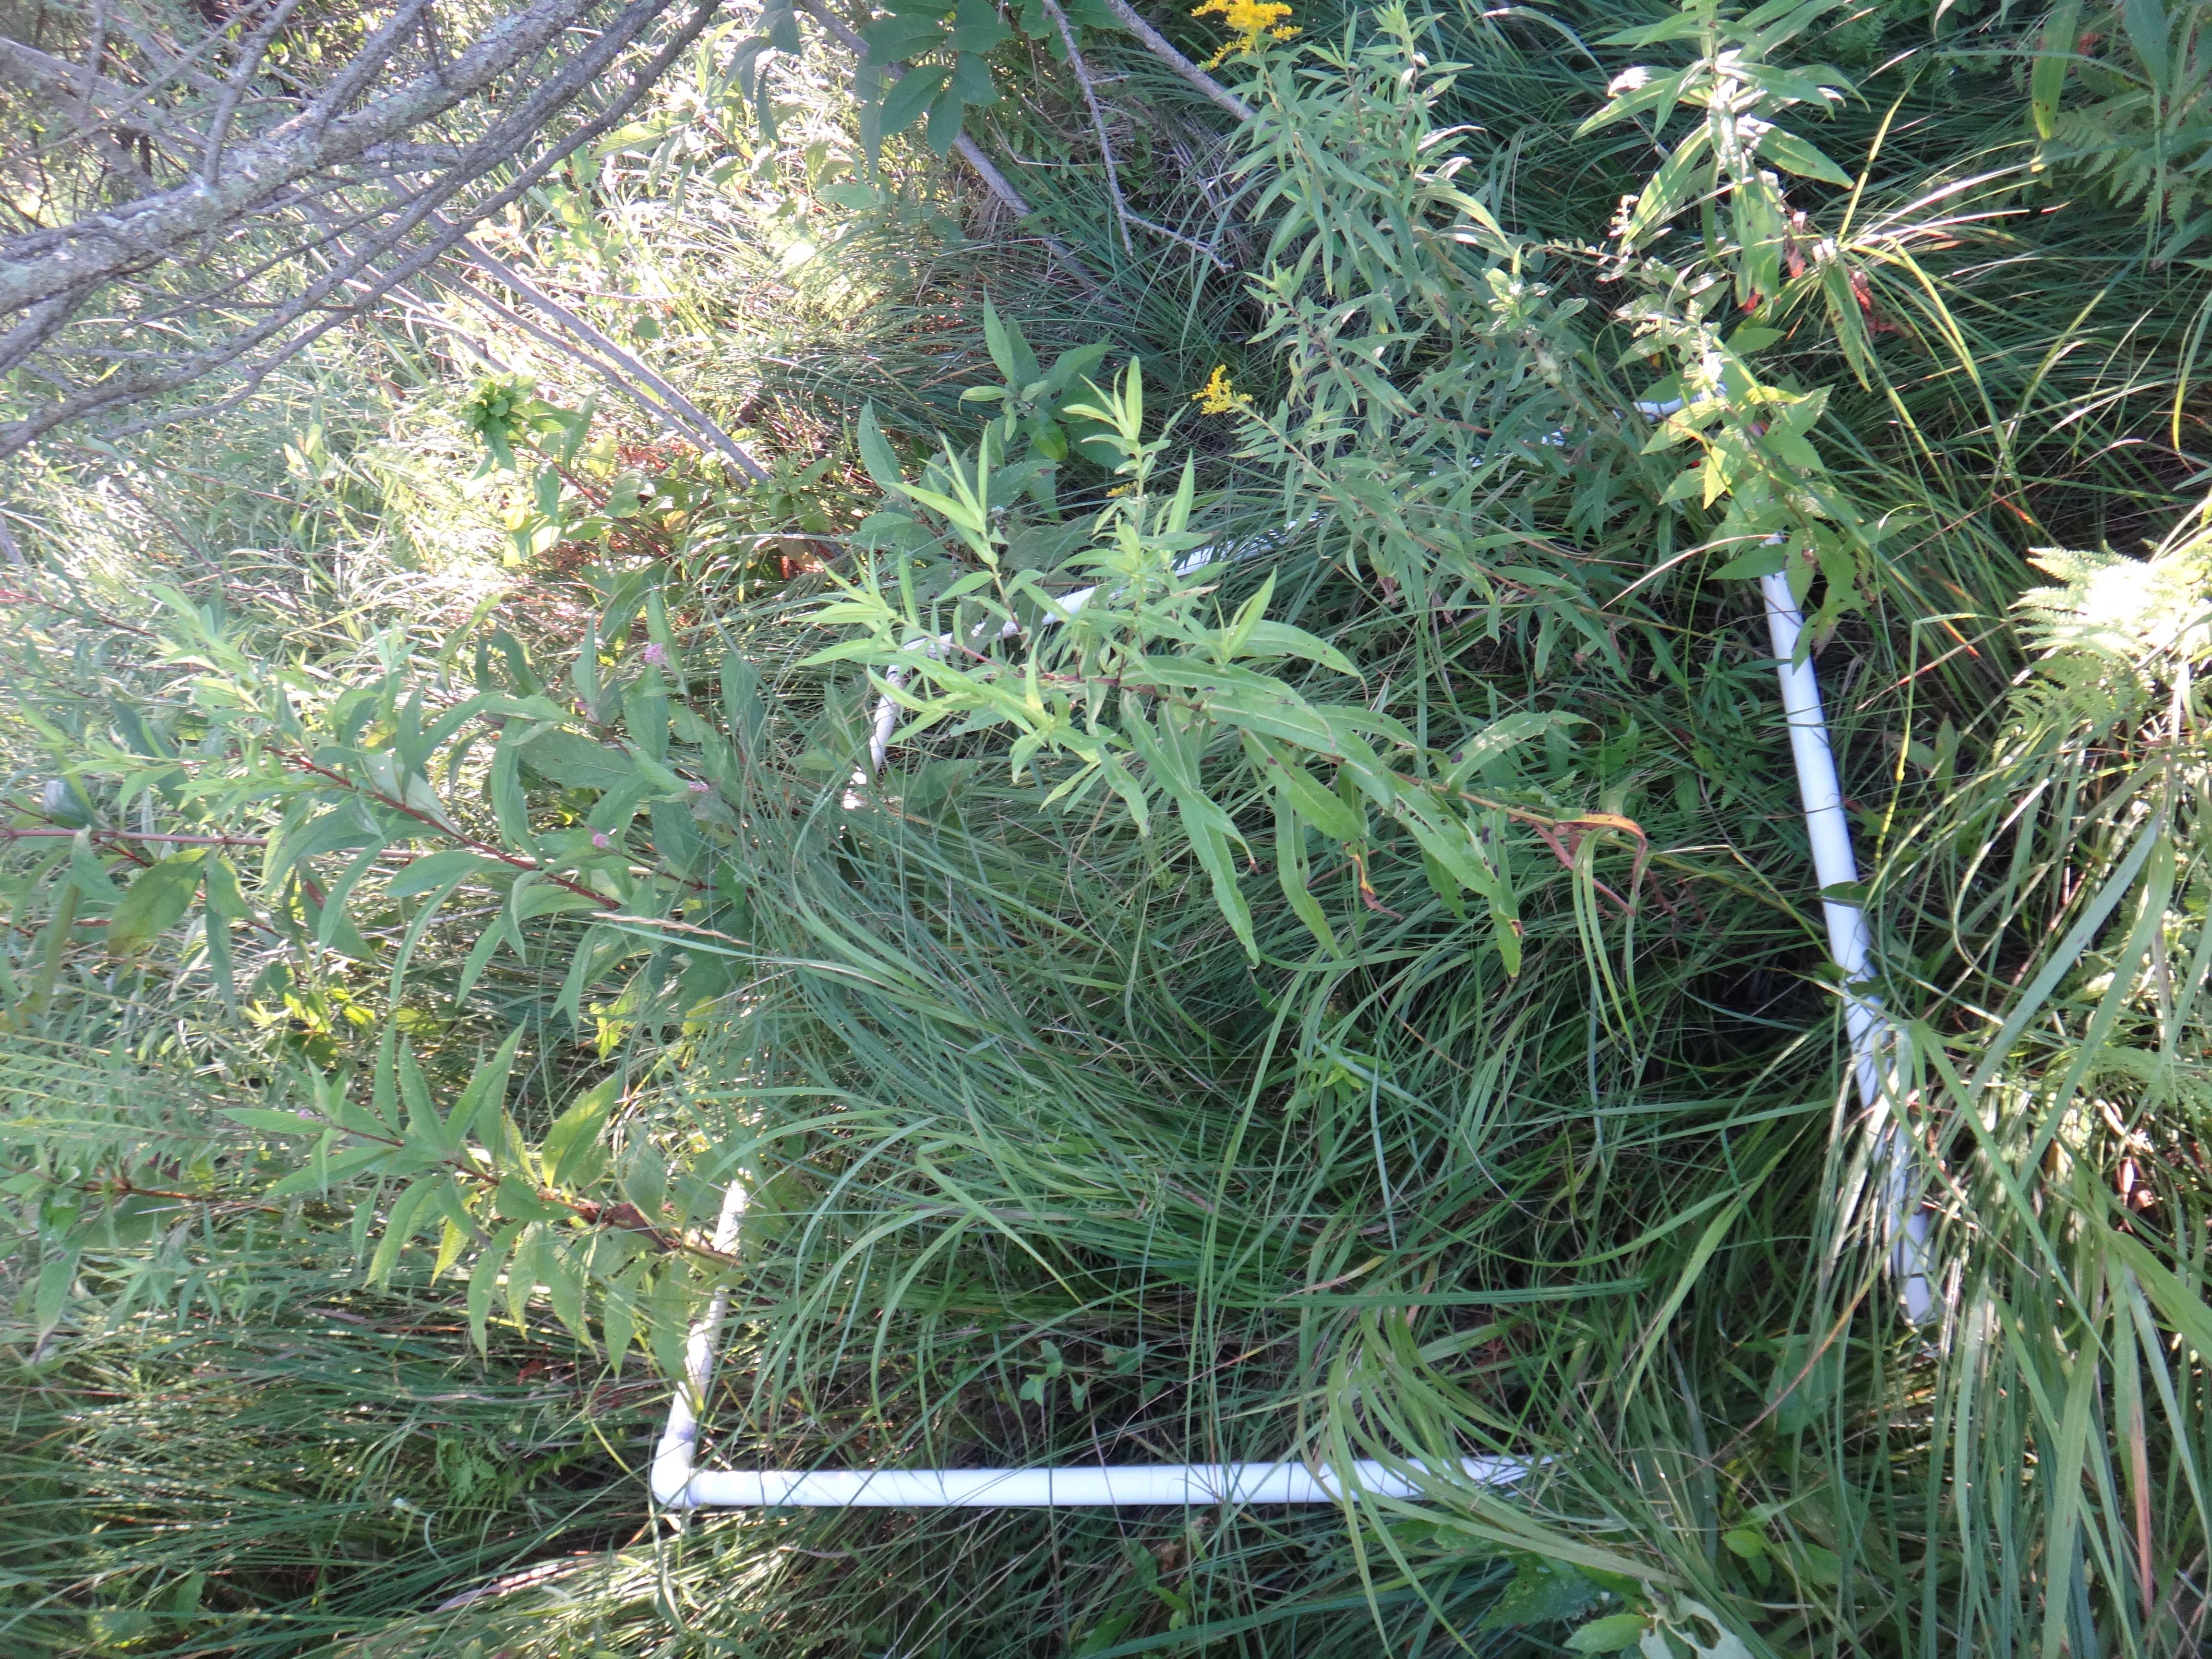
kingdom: Plantae
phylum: Tracheophyta
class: Liliopsida
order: Poales
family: Cyperaceae
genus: Carex
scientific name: Carex prairea
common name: Prairie sedge
